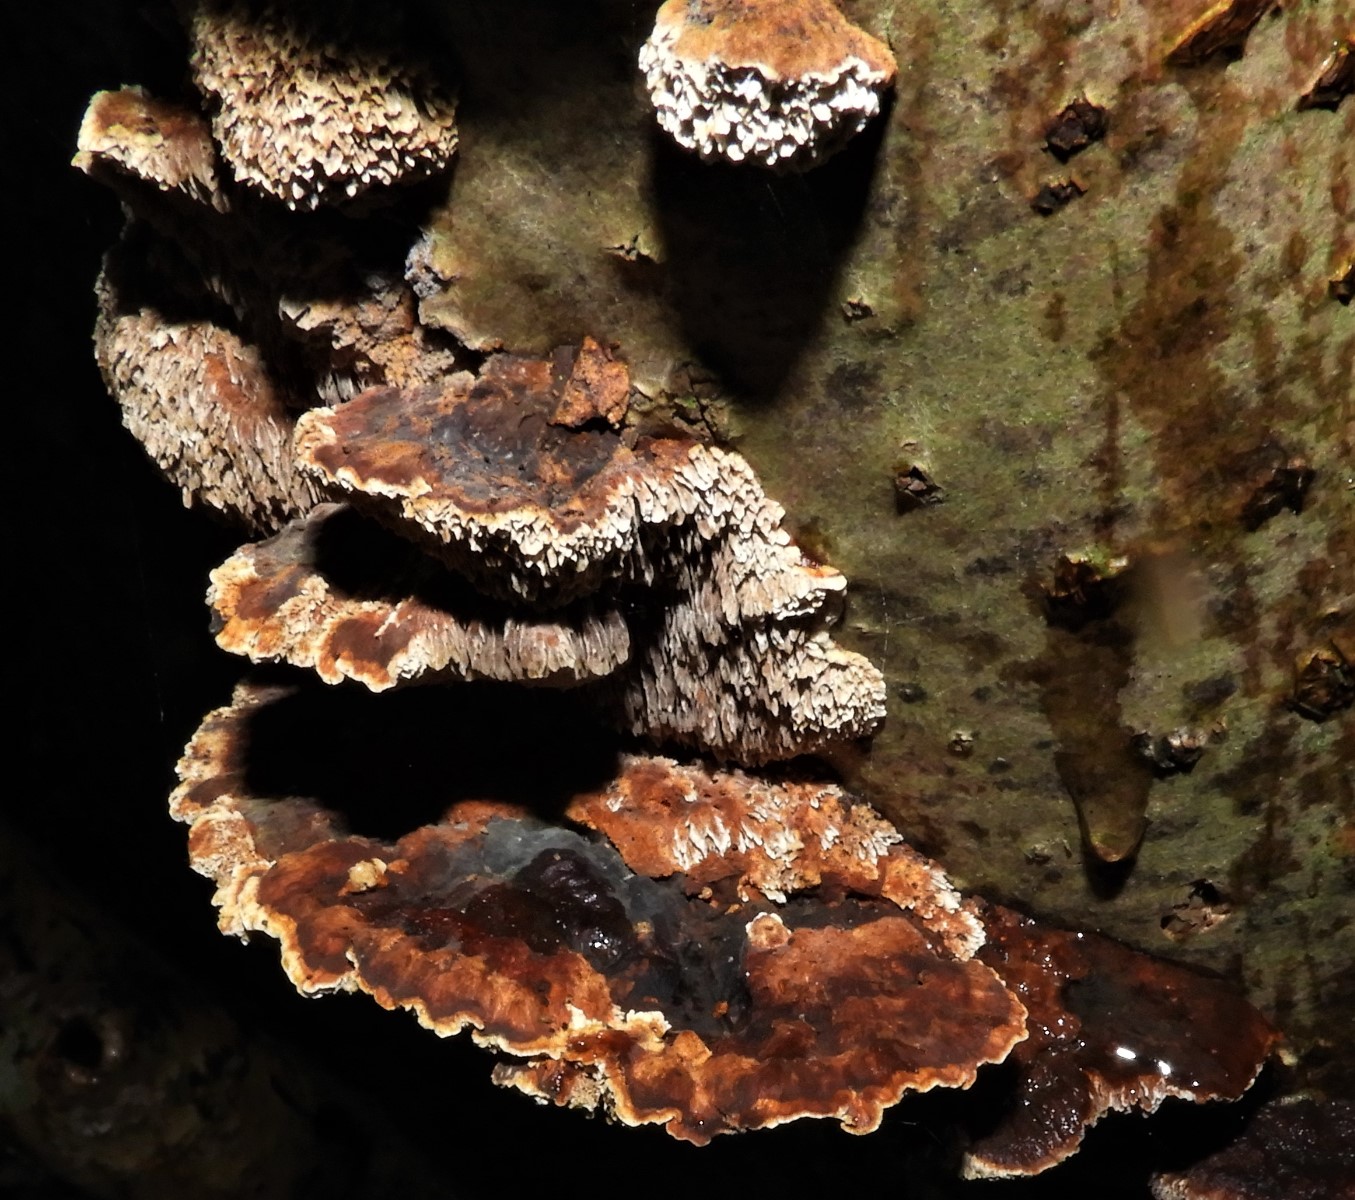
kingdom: Fungi
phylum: Basidiomycota
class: Agaricomycetes
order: Hymenochaetales
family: Hymenochaetaceae
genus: Xanthoporia
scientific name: Xanthoporia radiata
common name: elle-spejlporesvamp
